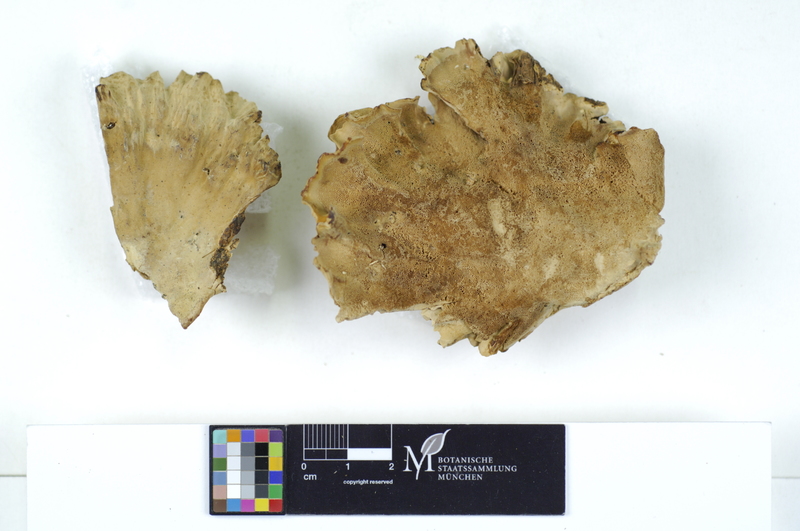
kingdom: Plantae
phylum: Tracheophyta
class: Magnoliopsida
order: Rosales
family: Rosaceae
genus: Malus
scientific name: Malus
